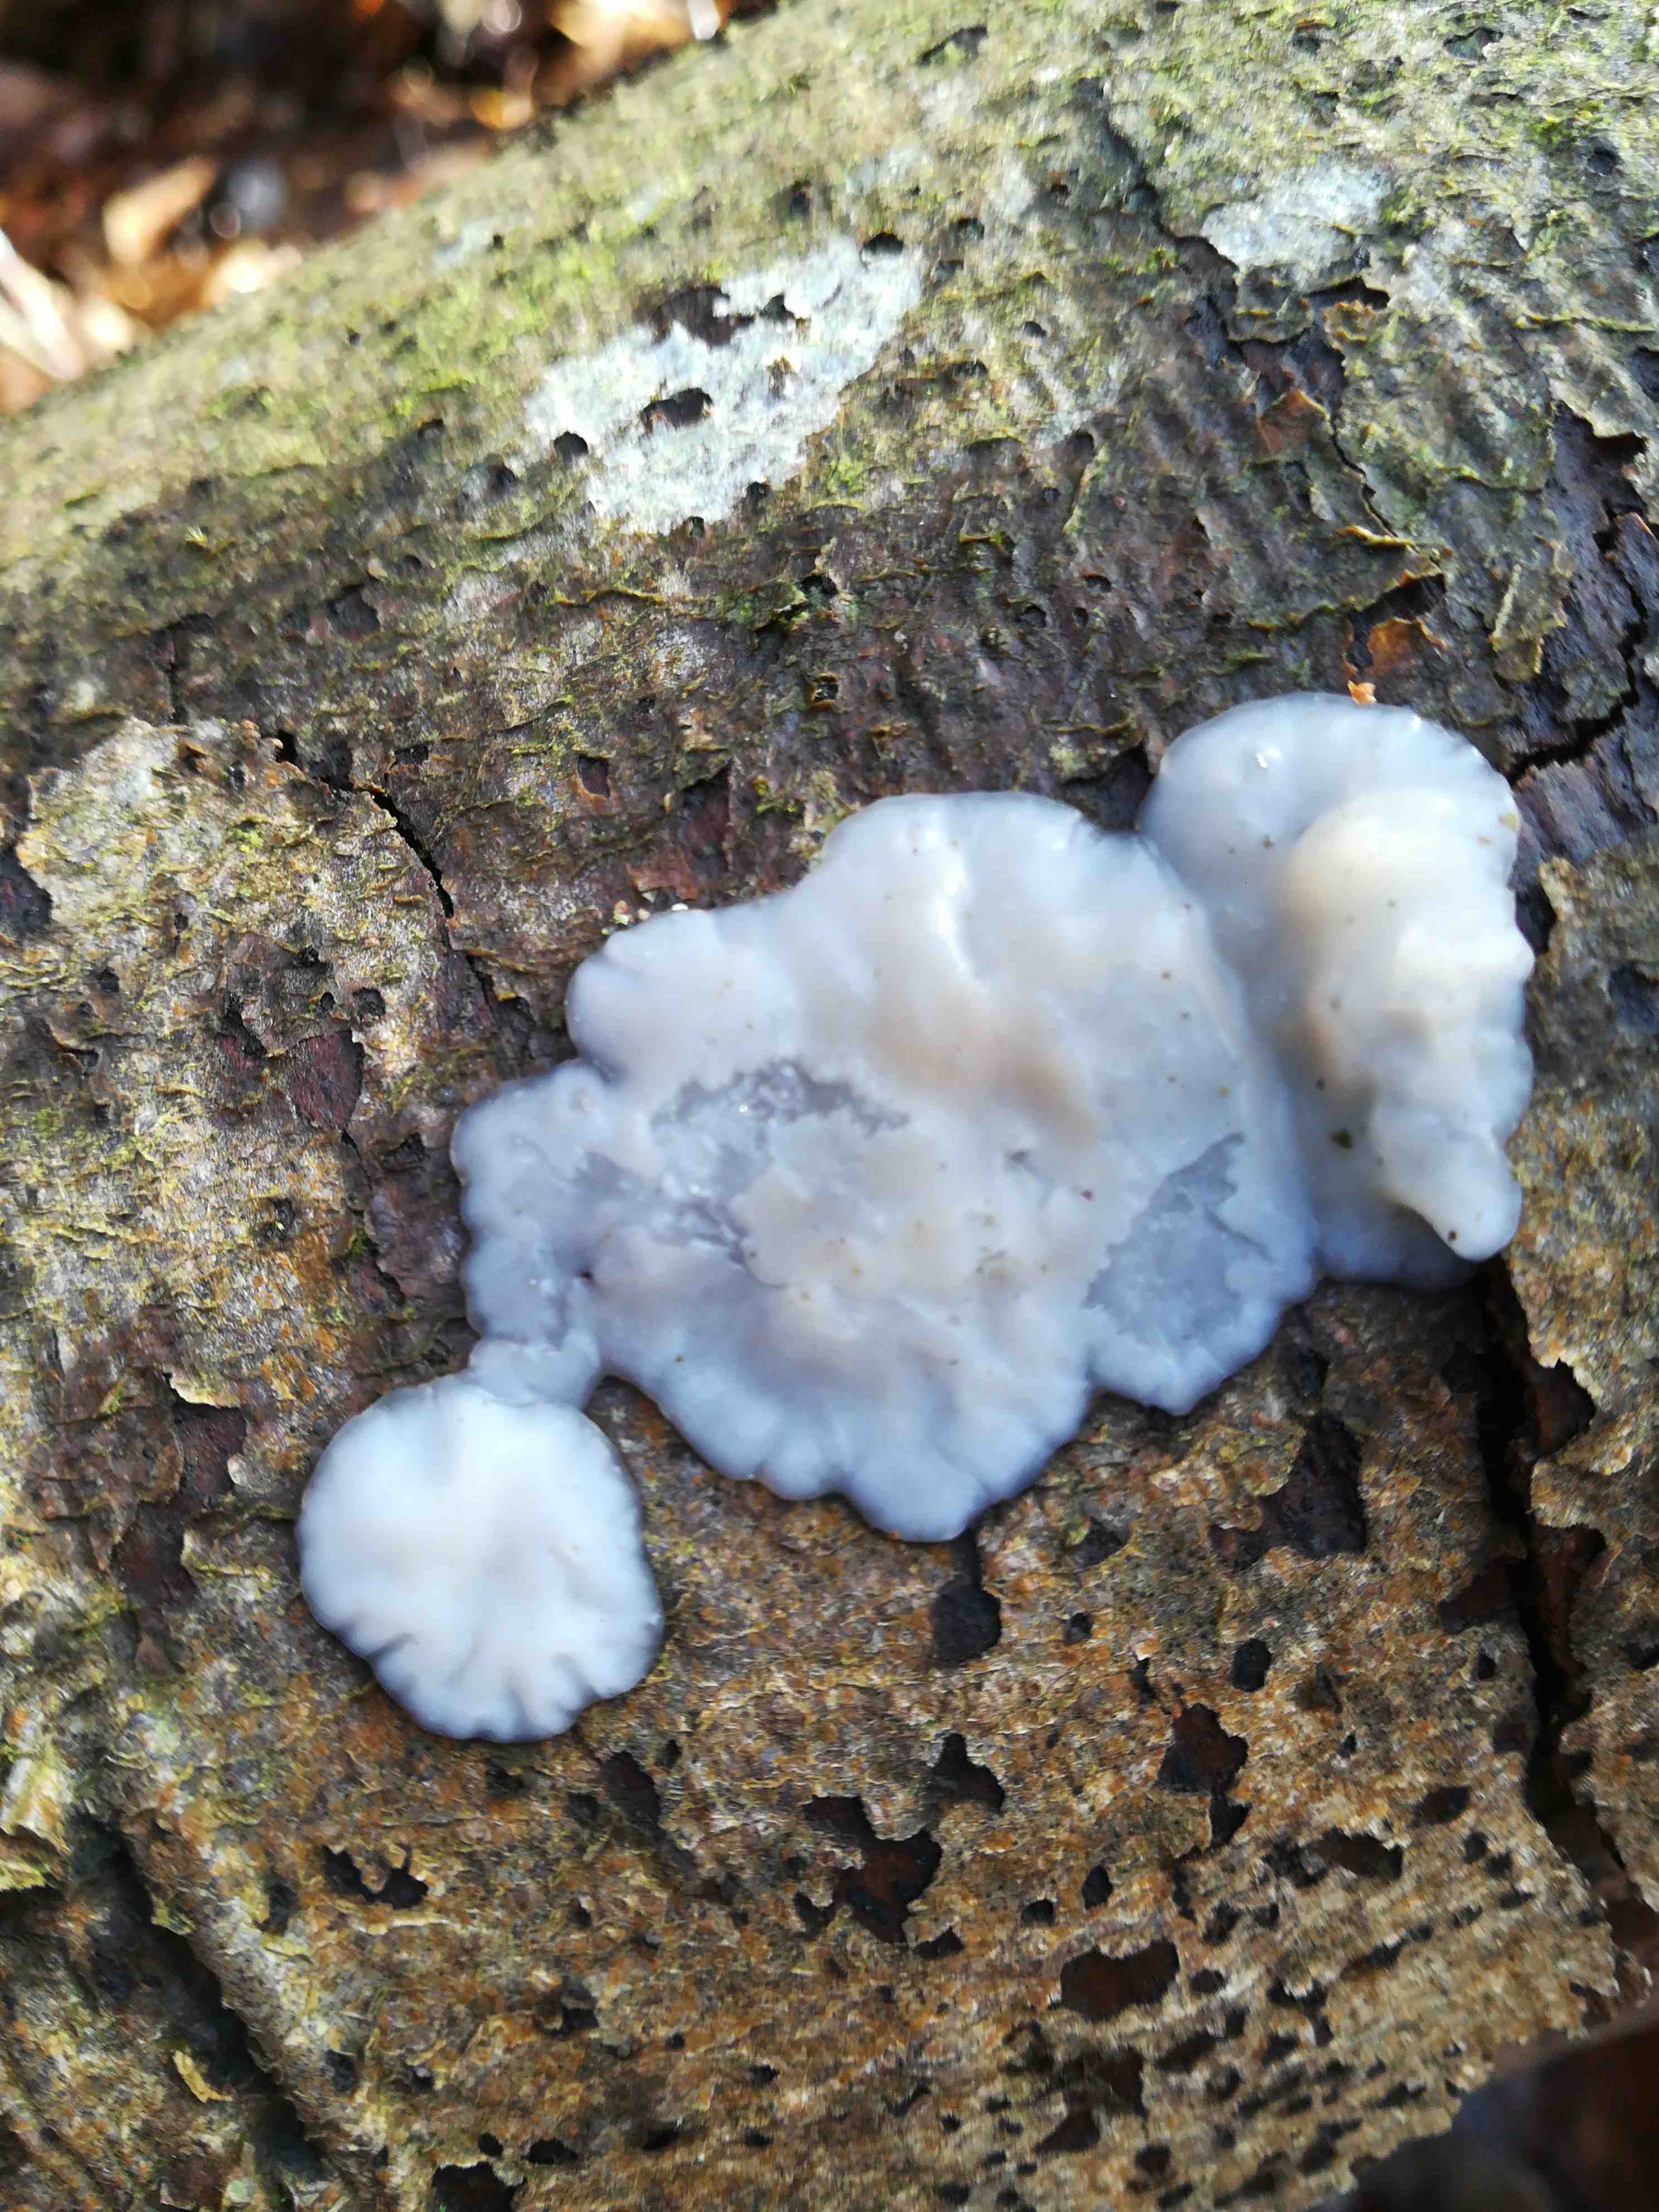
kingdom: Fungi
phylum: Basidiomycota
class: Agaricomycetes
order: Auriculariales
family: Auriculariaceae
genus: Exidia
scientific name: Exidia thuretiana
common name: hvidlig bævretop
